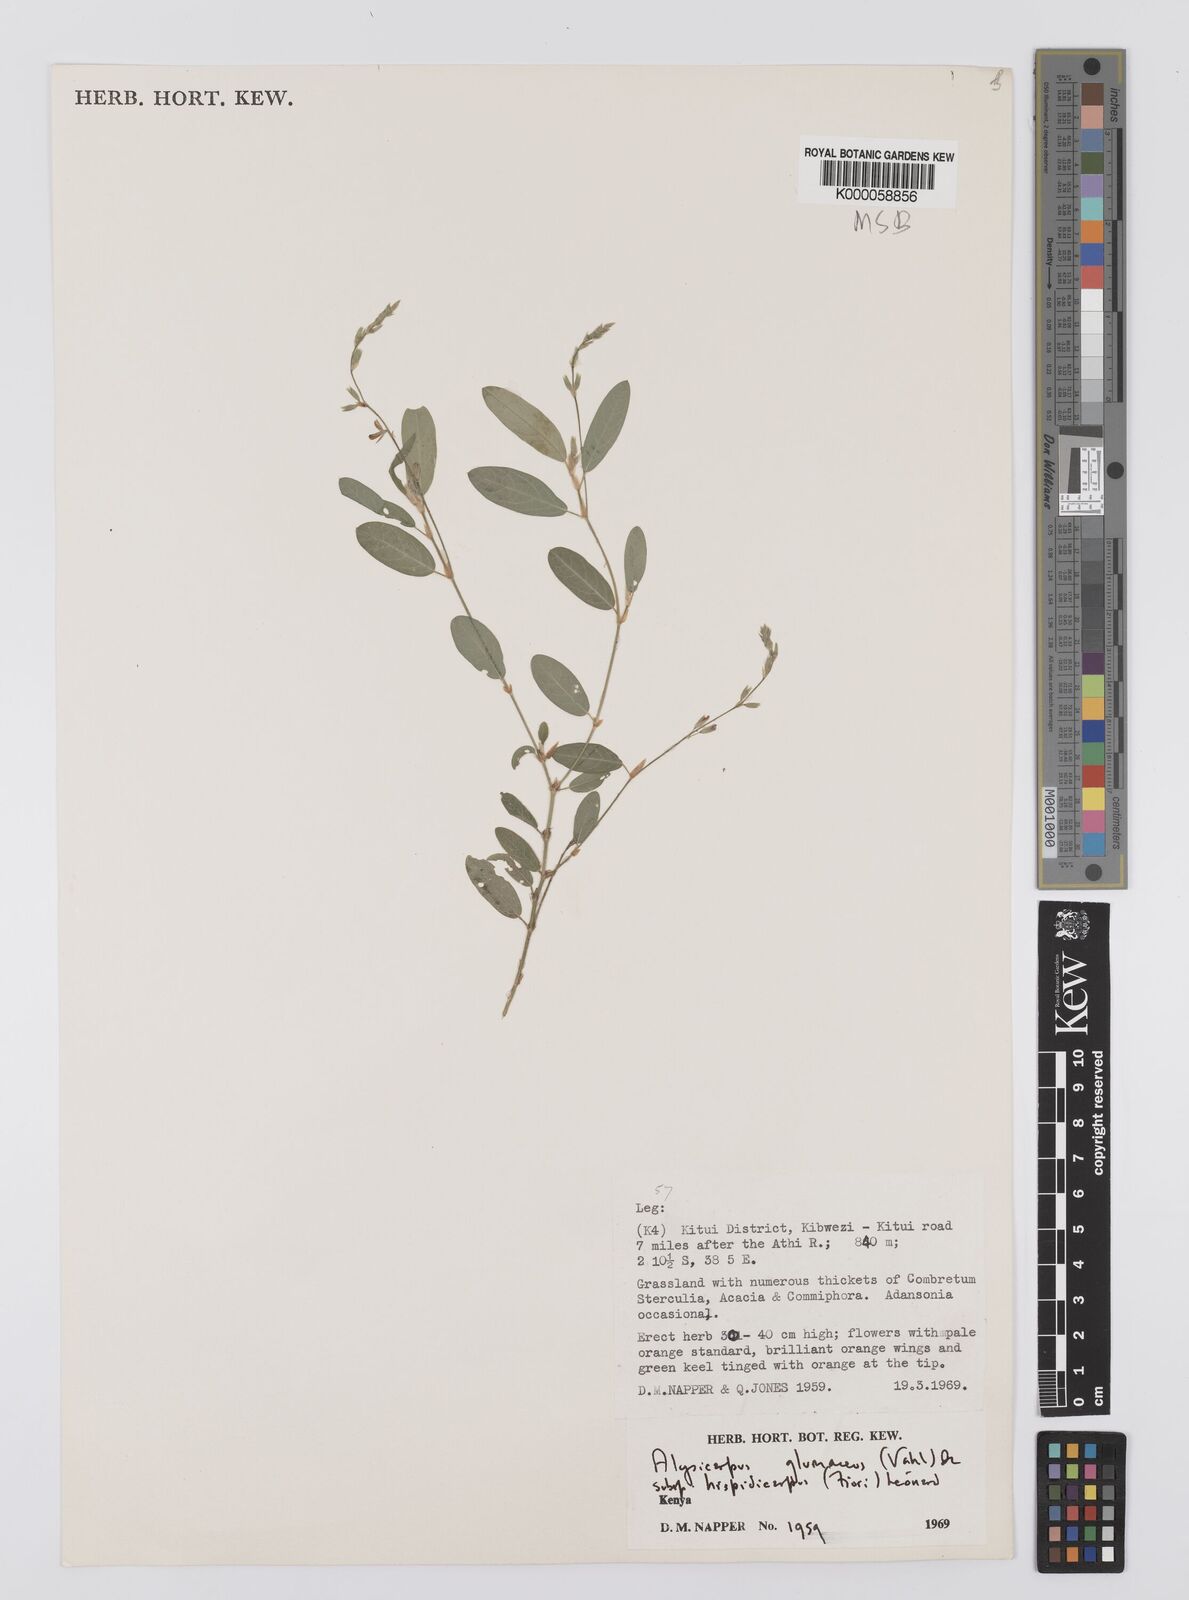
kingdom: Plantae
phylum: Tracheophyta
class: Magnoliopsida
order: Fabales
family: Fabaceae
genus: Alysicarpus
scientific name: Alysicarpus glumaceus
